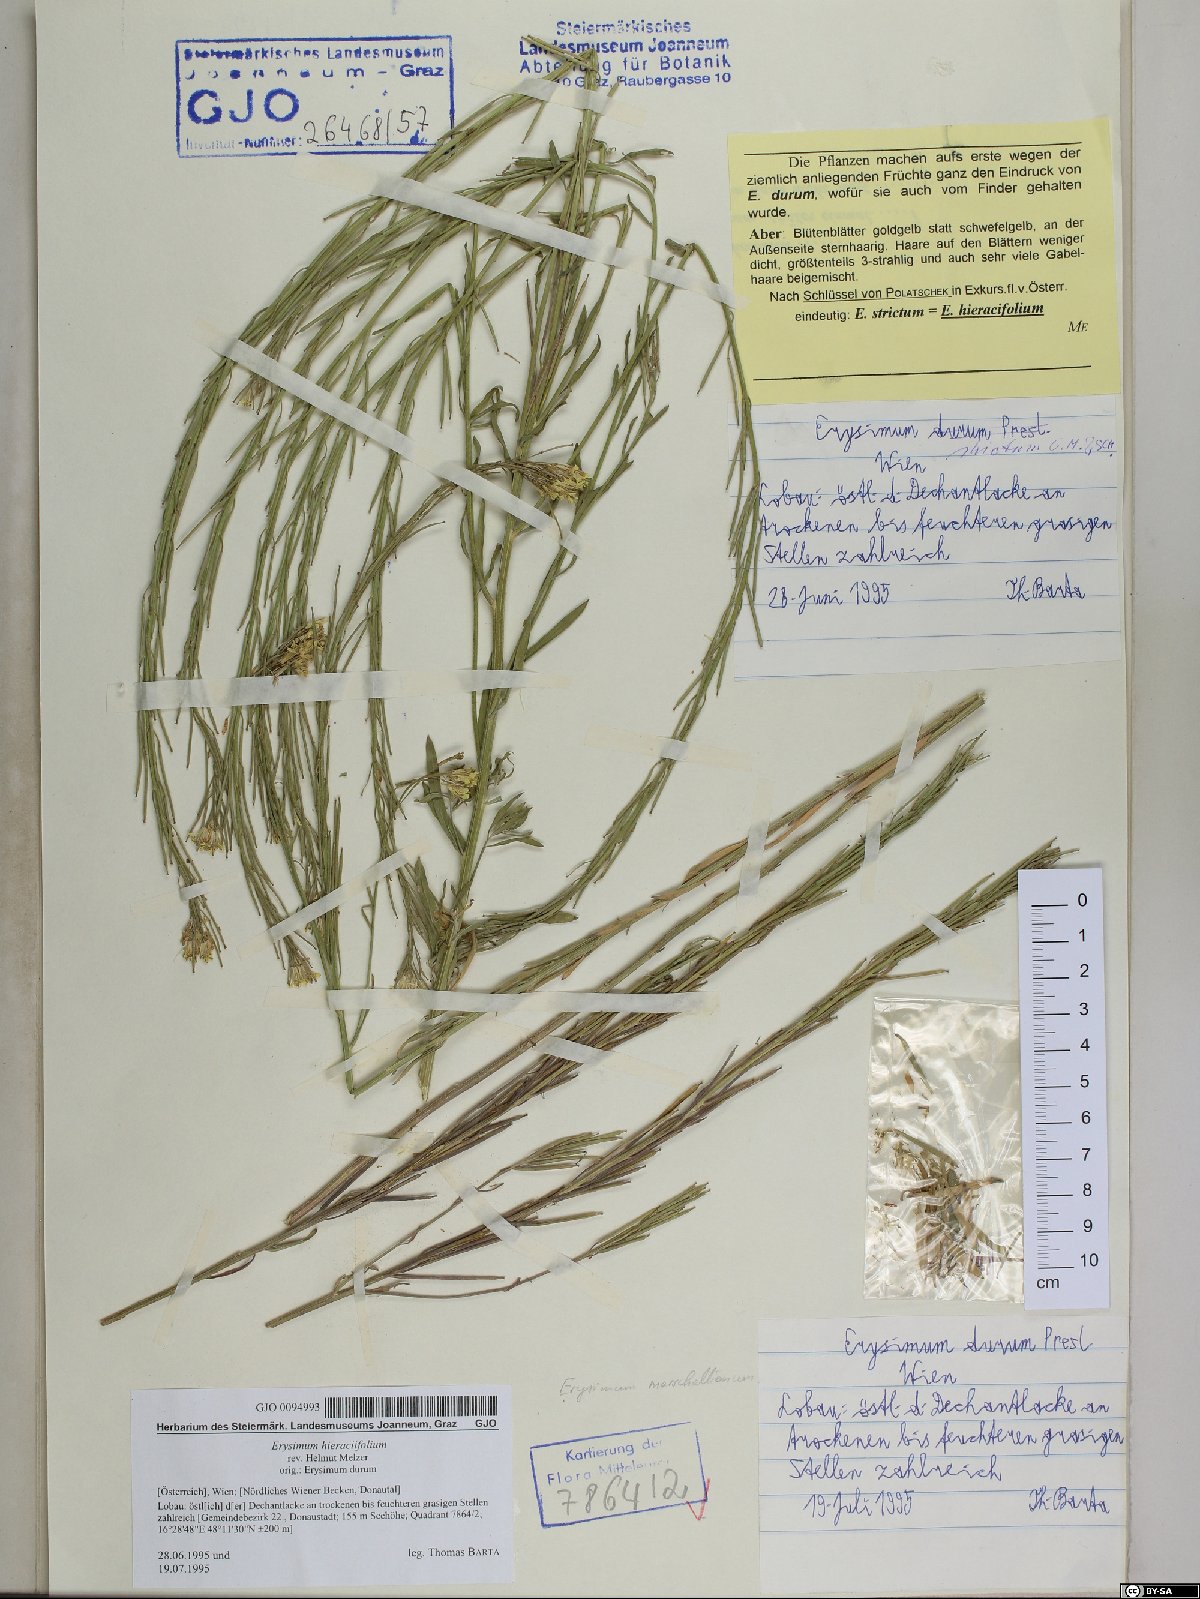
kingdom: Plantae
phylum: Tracheophyta
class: Magnoliopsida
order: Brassicales
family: Brassicaceae
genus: Erysimum
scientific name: Erysimum hieraciifolium
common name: European wallflower
